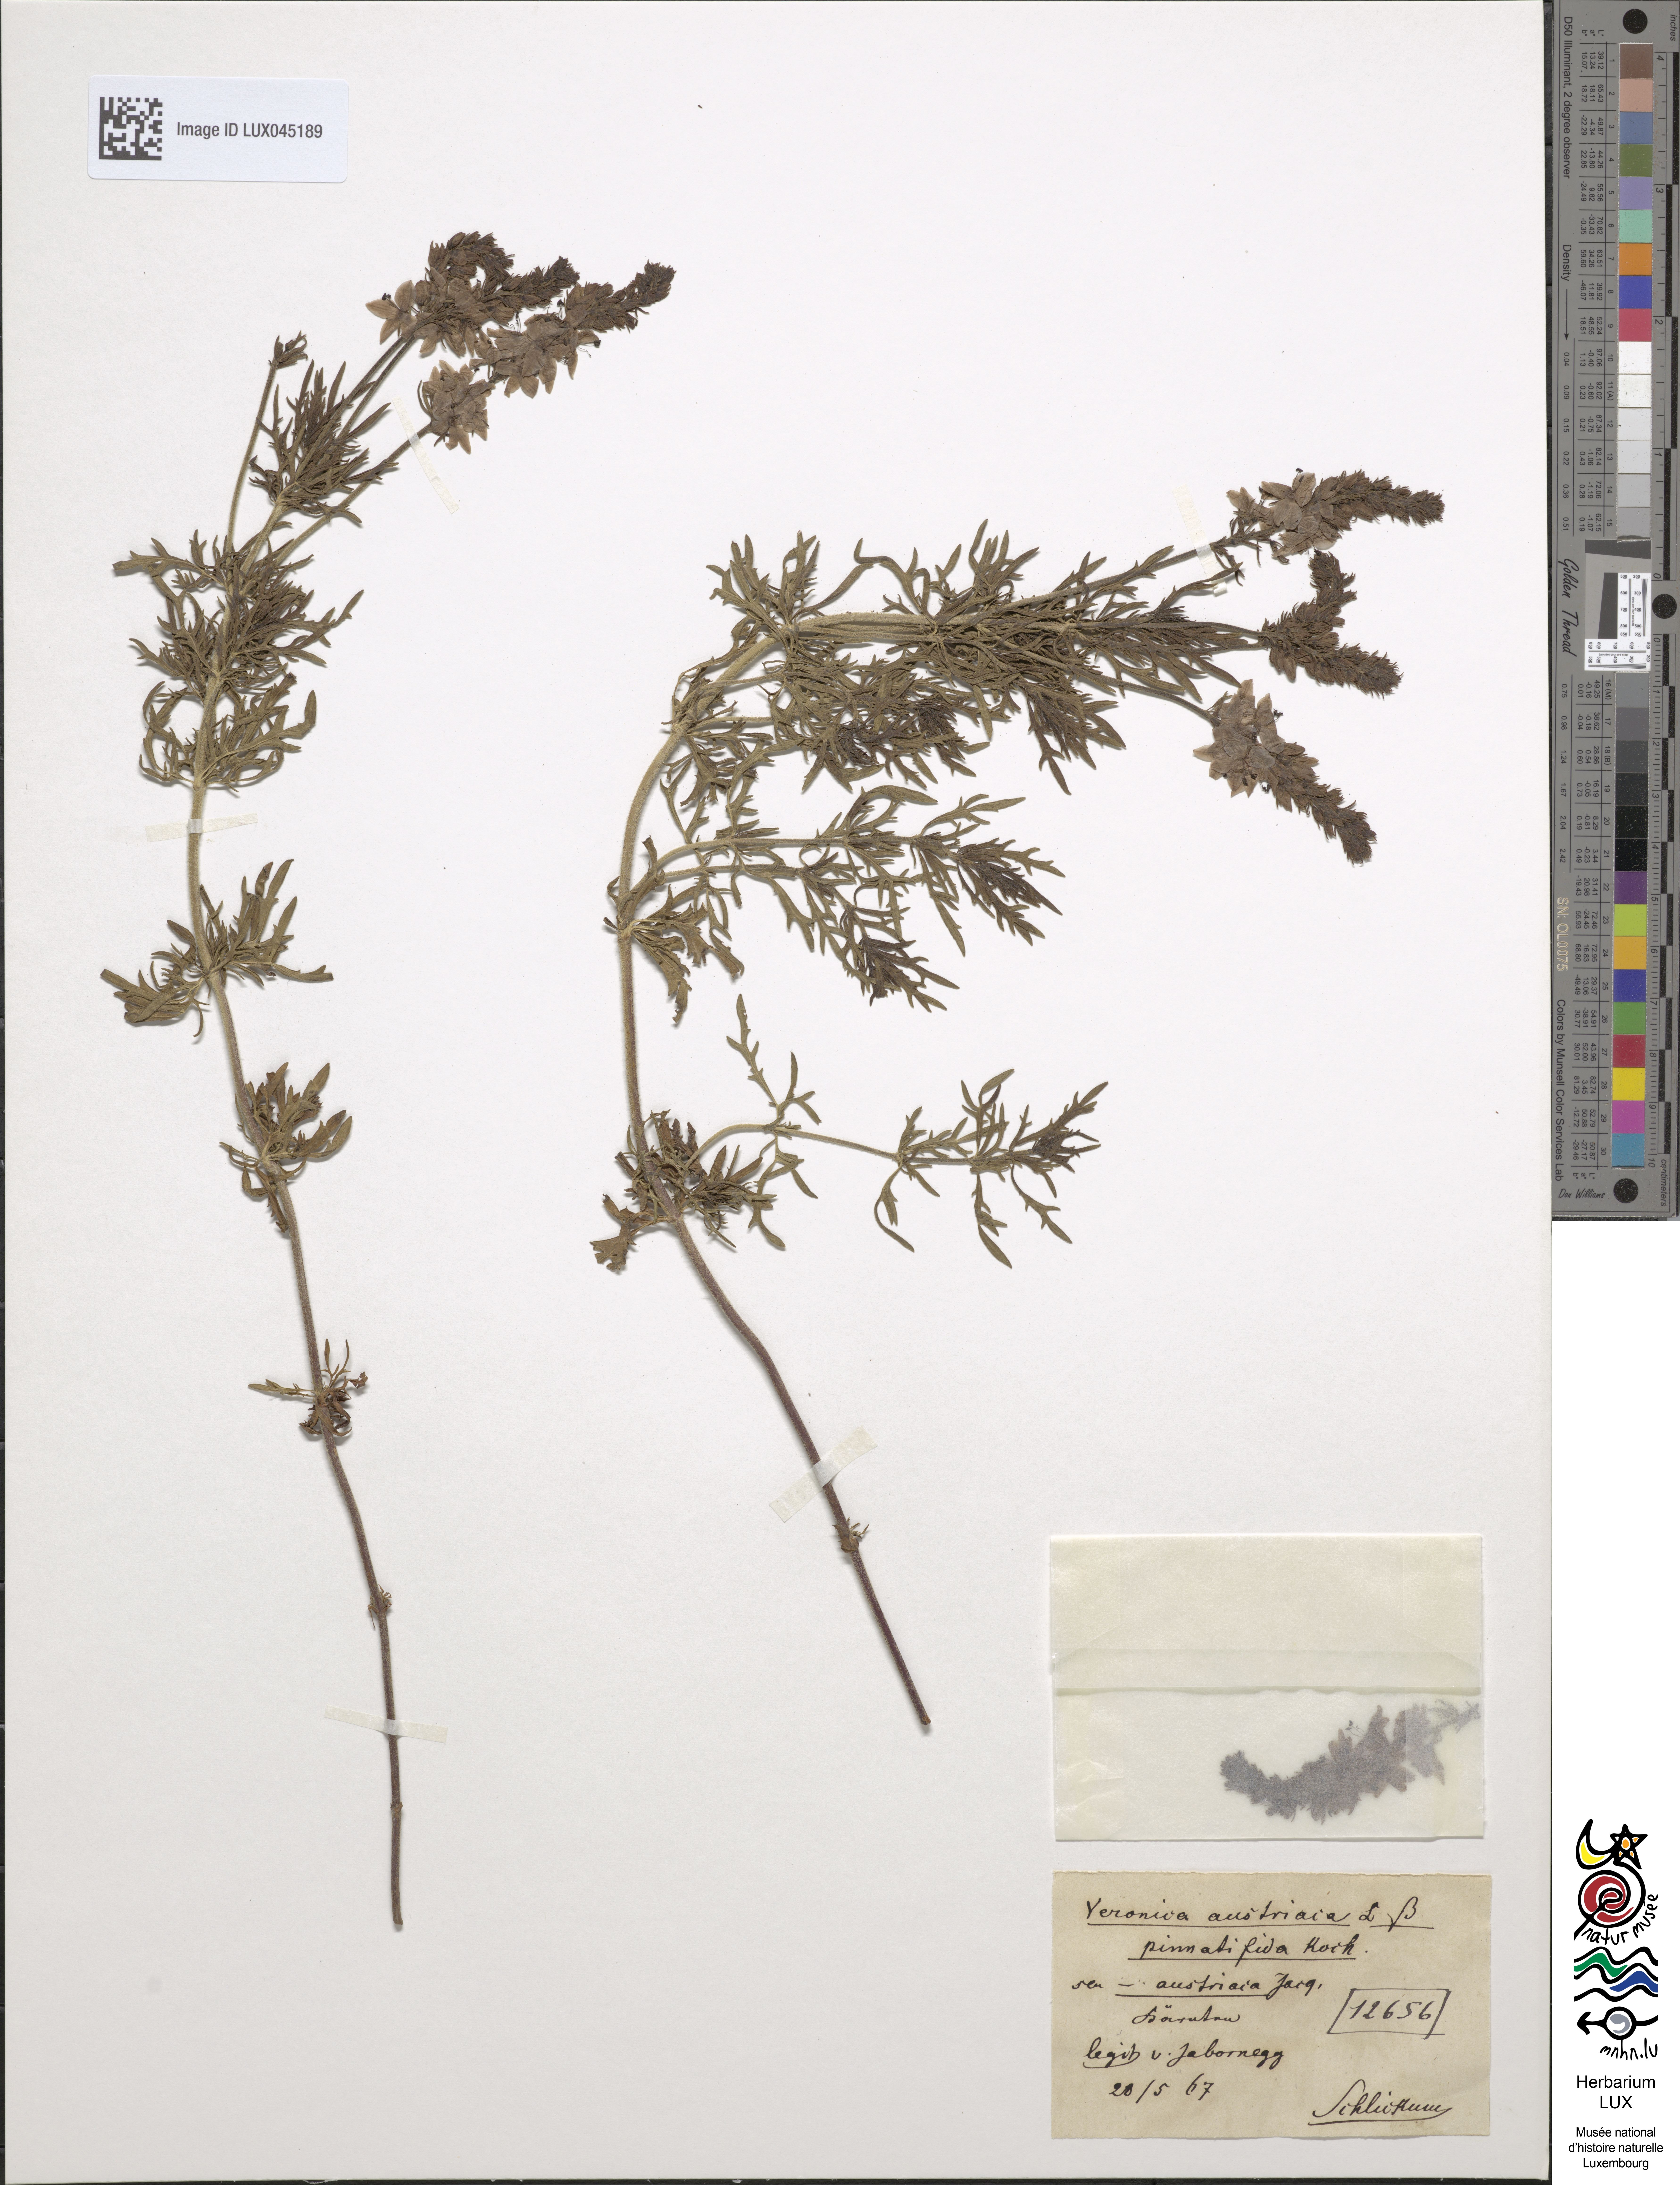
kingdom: Plantae
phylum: Tracheophyta
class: Magnoliopsida
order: Lamiales
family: Plantaginaceae
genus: Veronica
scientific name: Veronica austriaca
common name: Large speedwell
